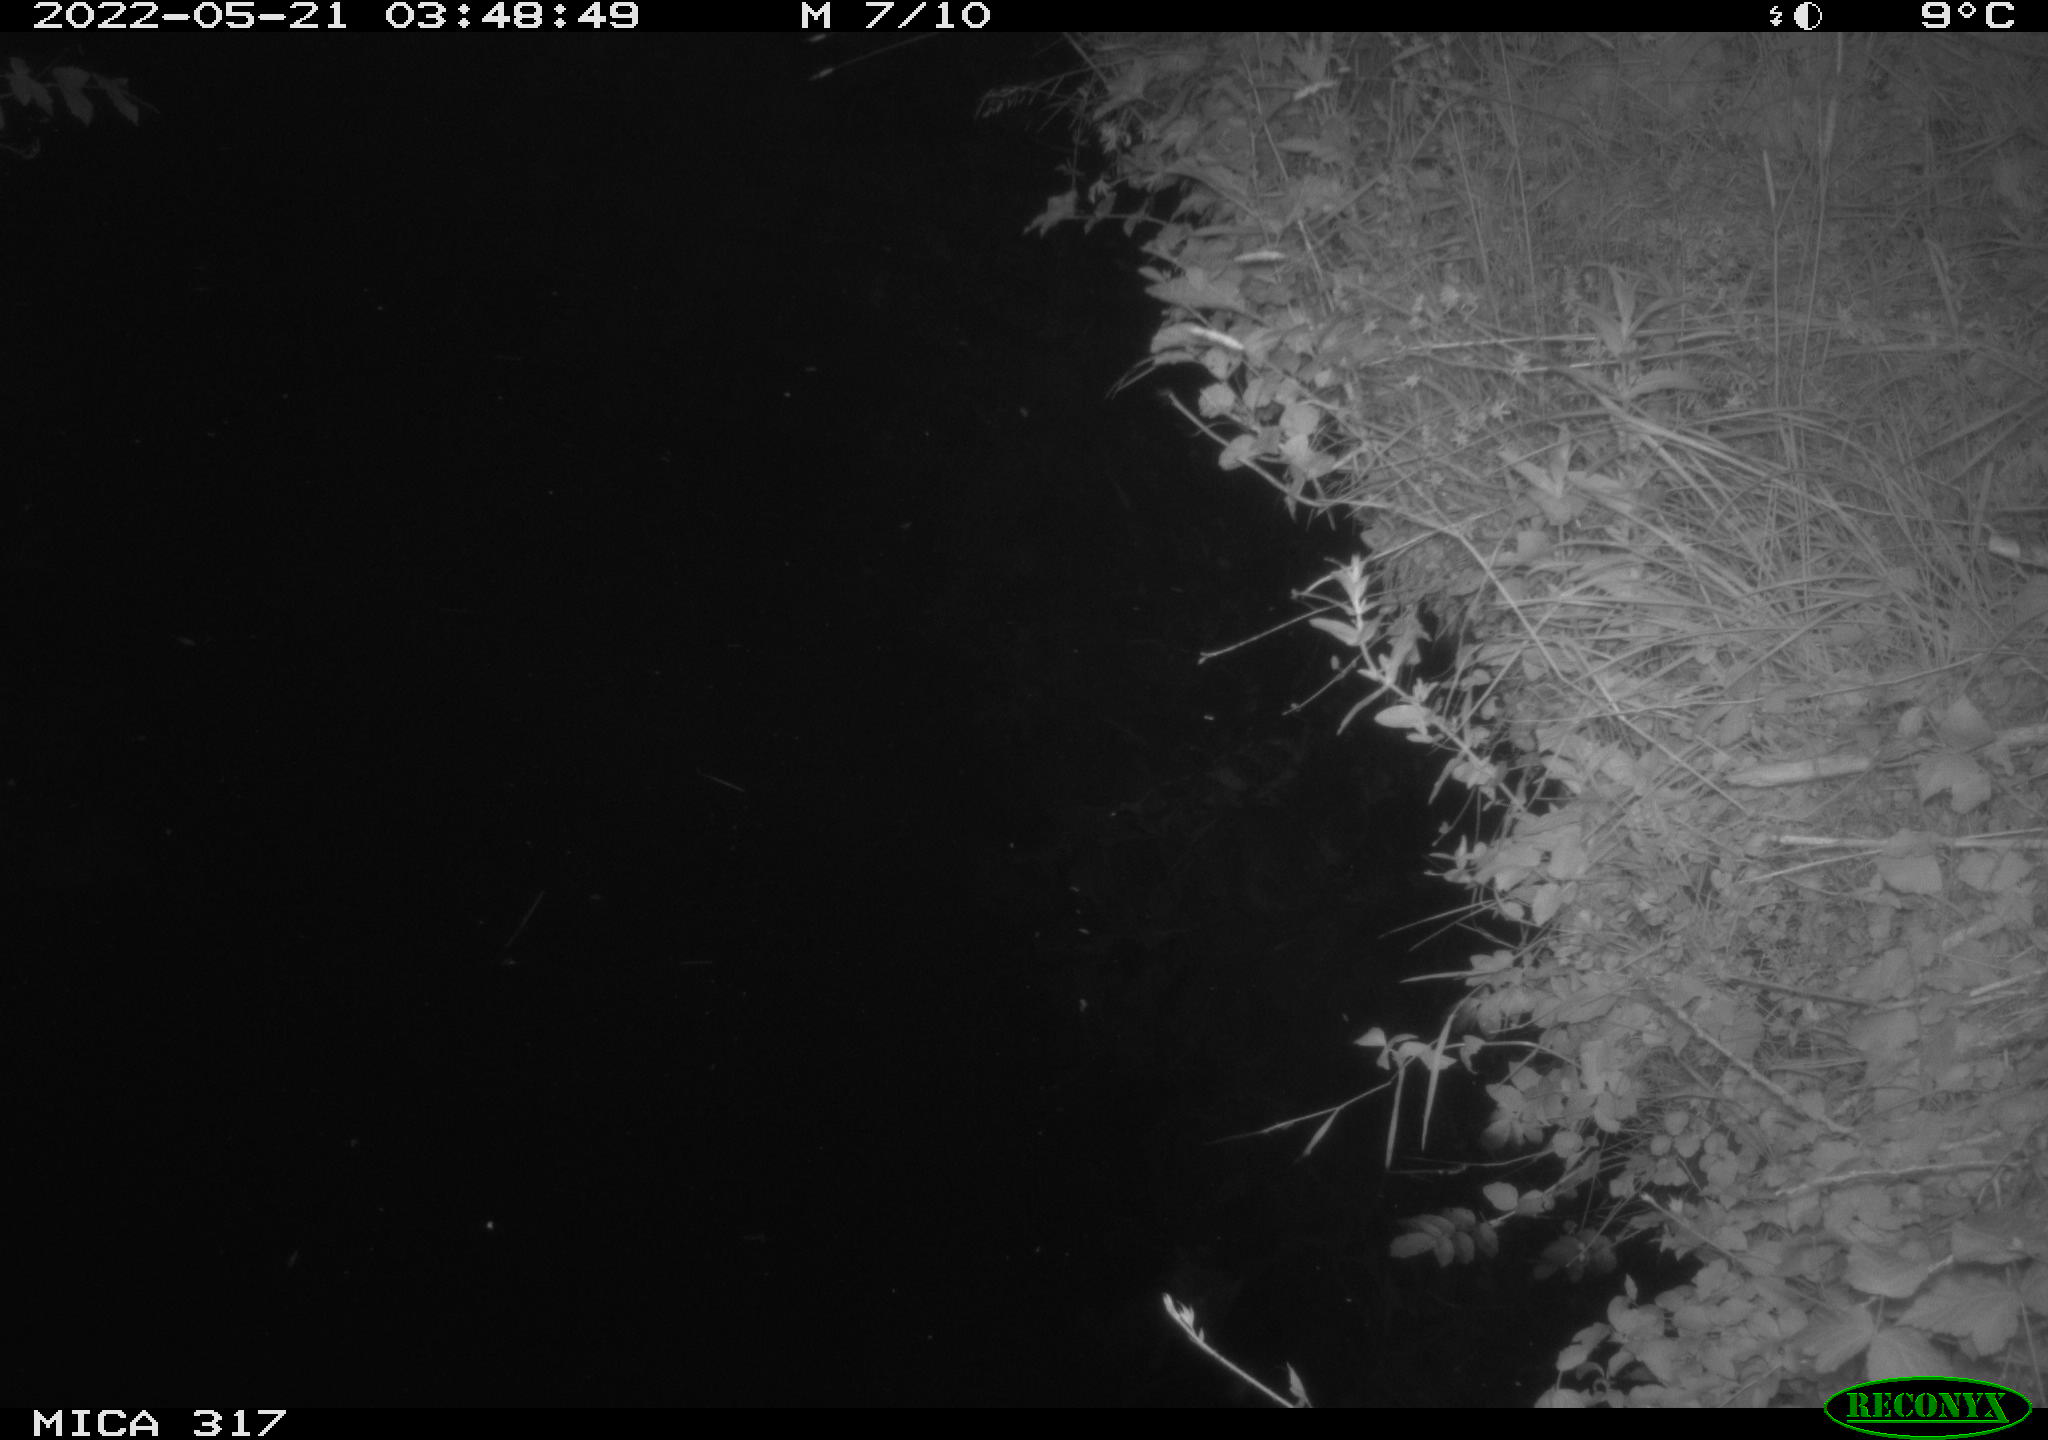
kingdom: Animalia
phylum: Chordata
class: Aves
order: Anseriformes
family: Anatidae
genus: Anas
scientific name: Anas
